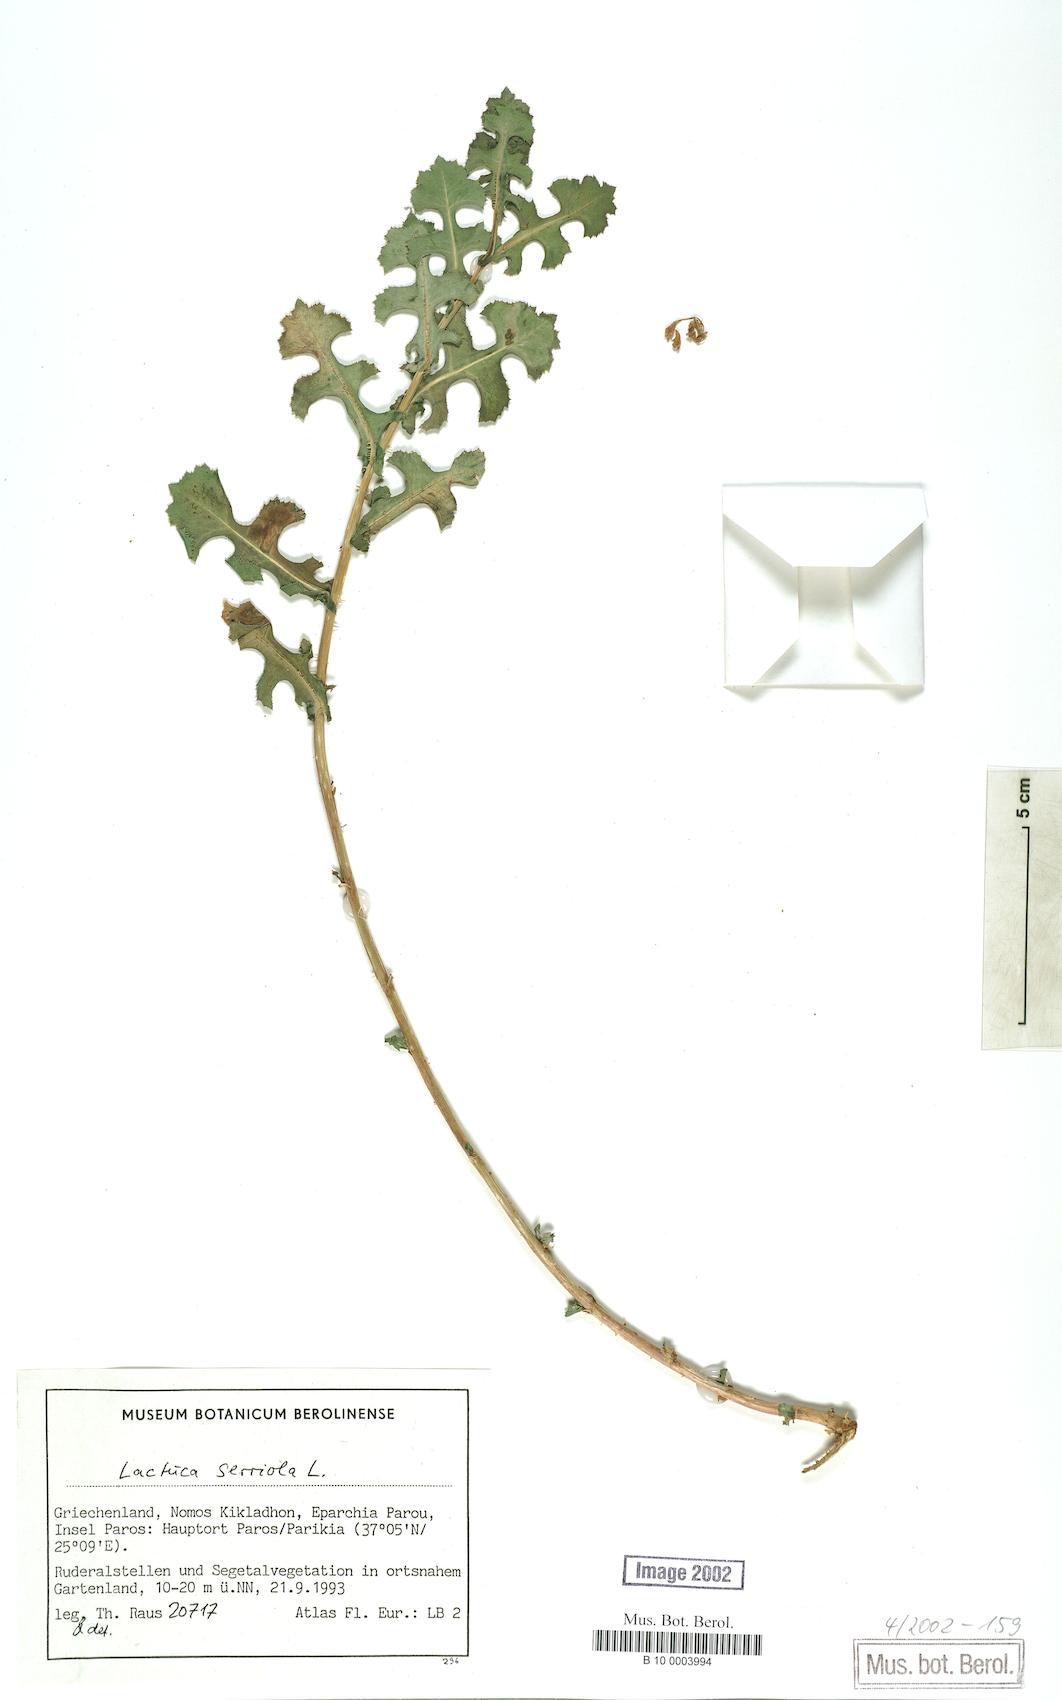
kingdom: Plantae
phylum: Tracheophyta
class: Magnoliopsida
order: Asterales
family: Asteraceae
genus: Lactuca
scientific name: Lactuca serriola
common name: Prickly lettuce
